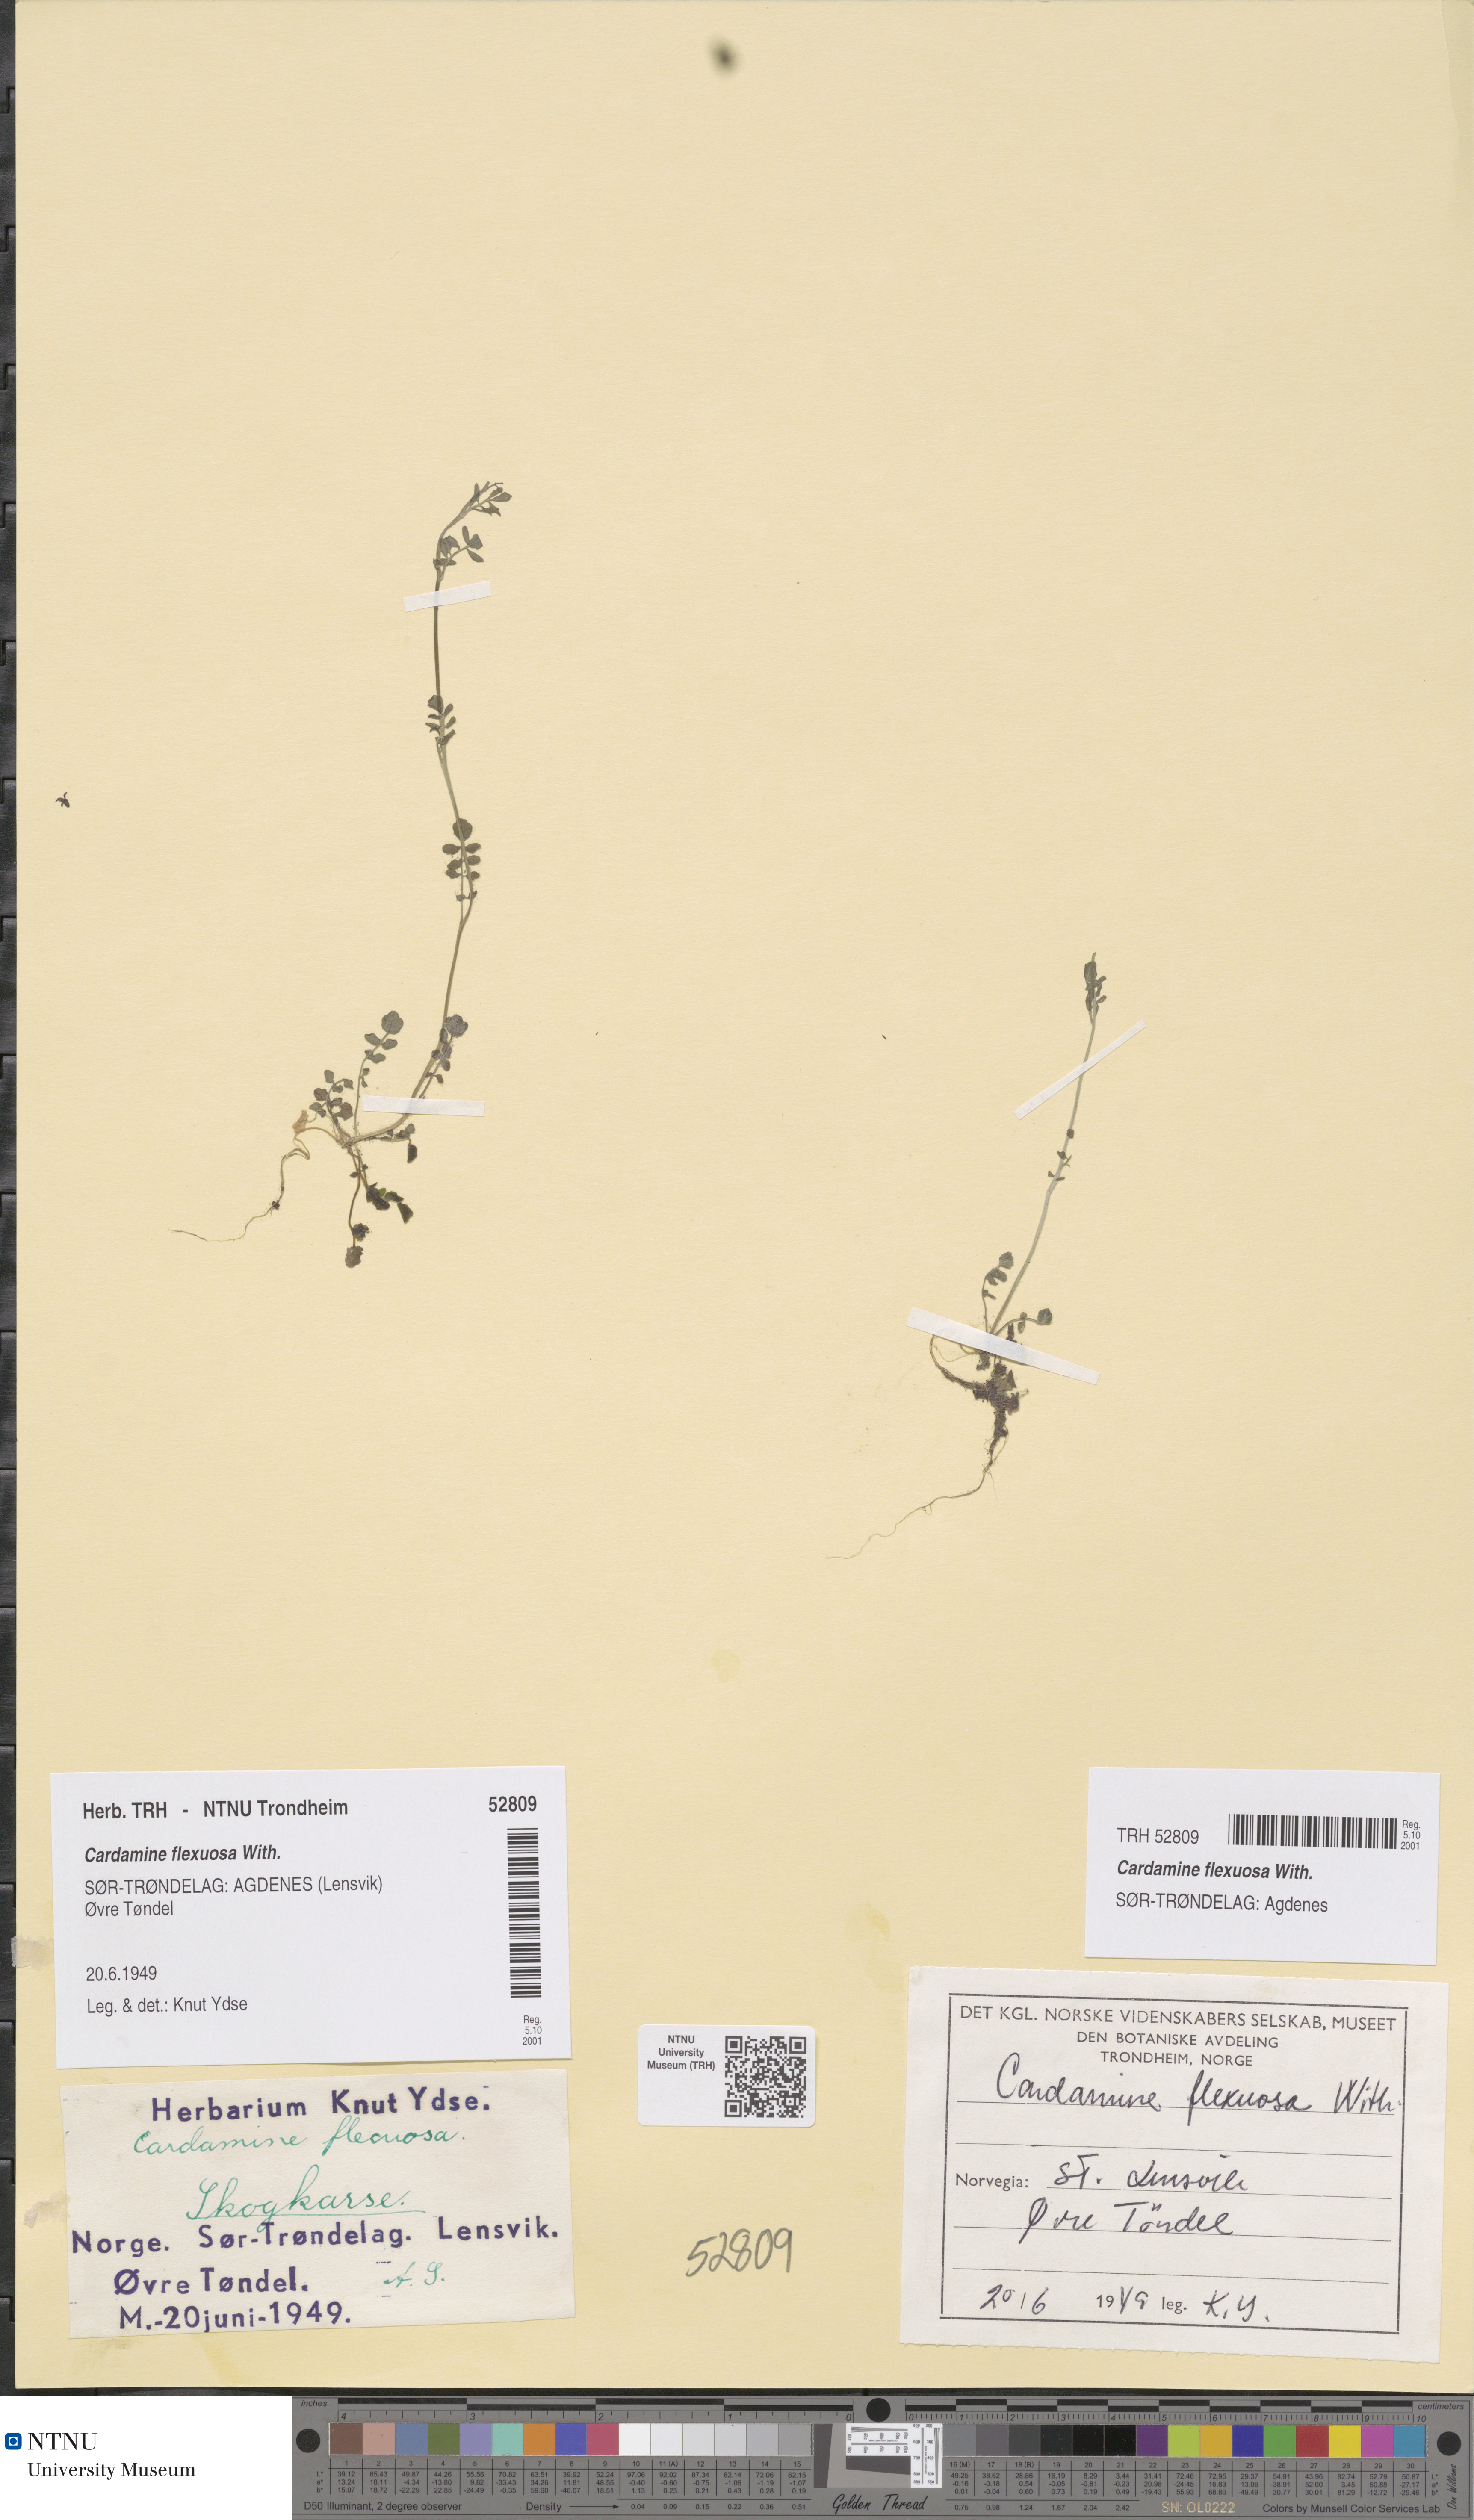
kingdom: Plantae
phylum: Tracheophyta
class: Magnoliopsida
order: Brassicales
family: Brassicaceae
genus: Cardamine
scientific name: Cardamine flexuosa
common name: Woodland bittercress
